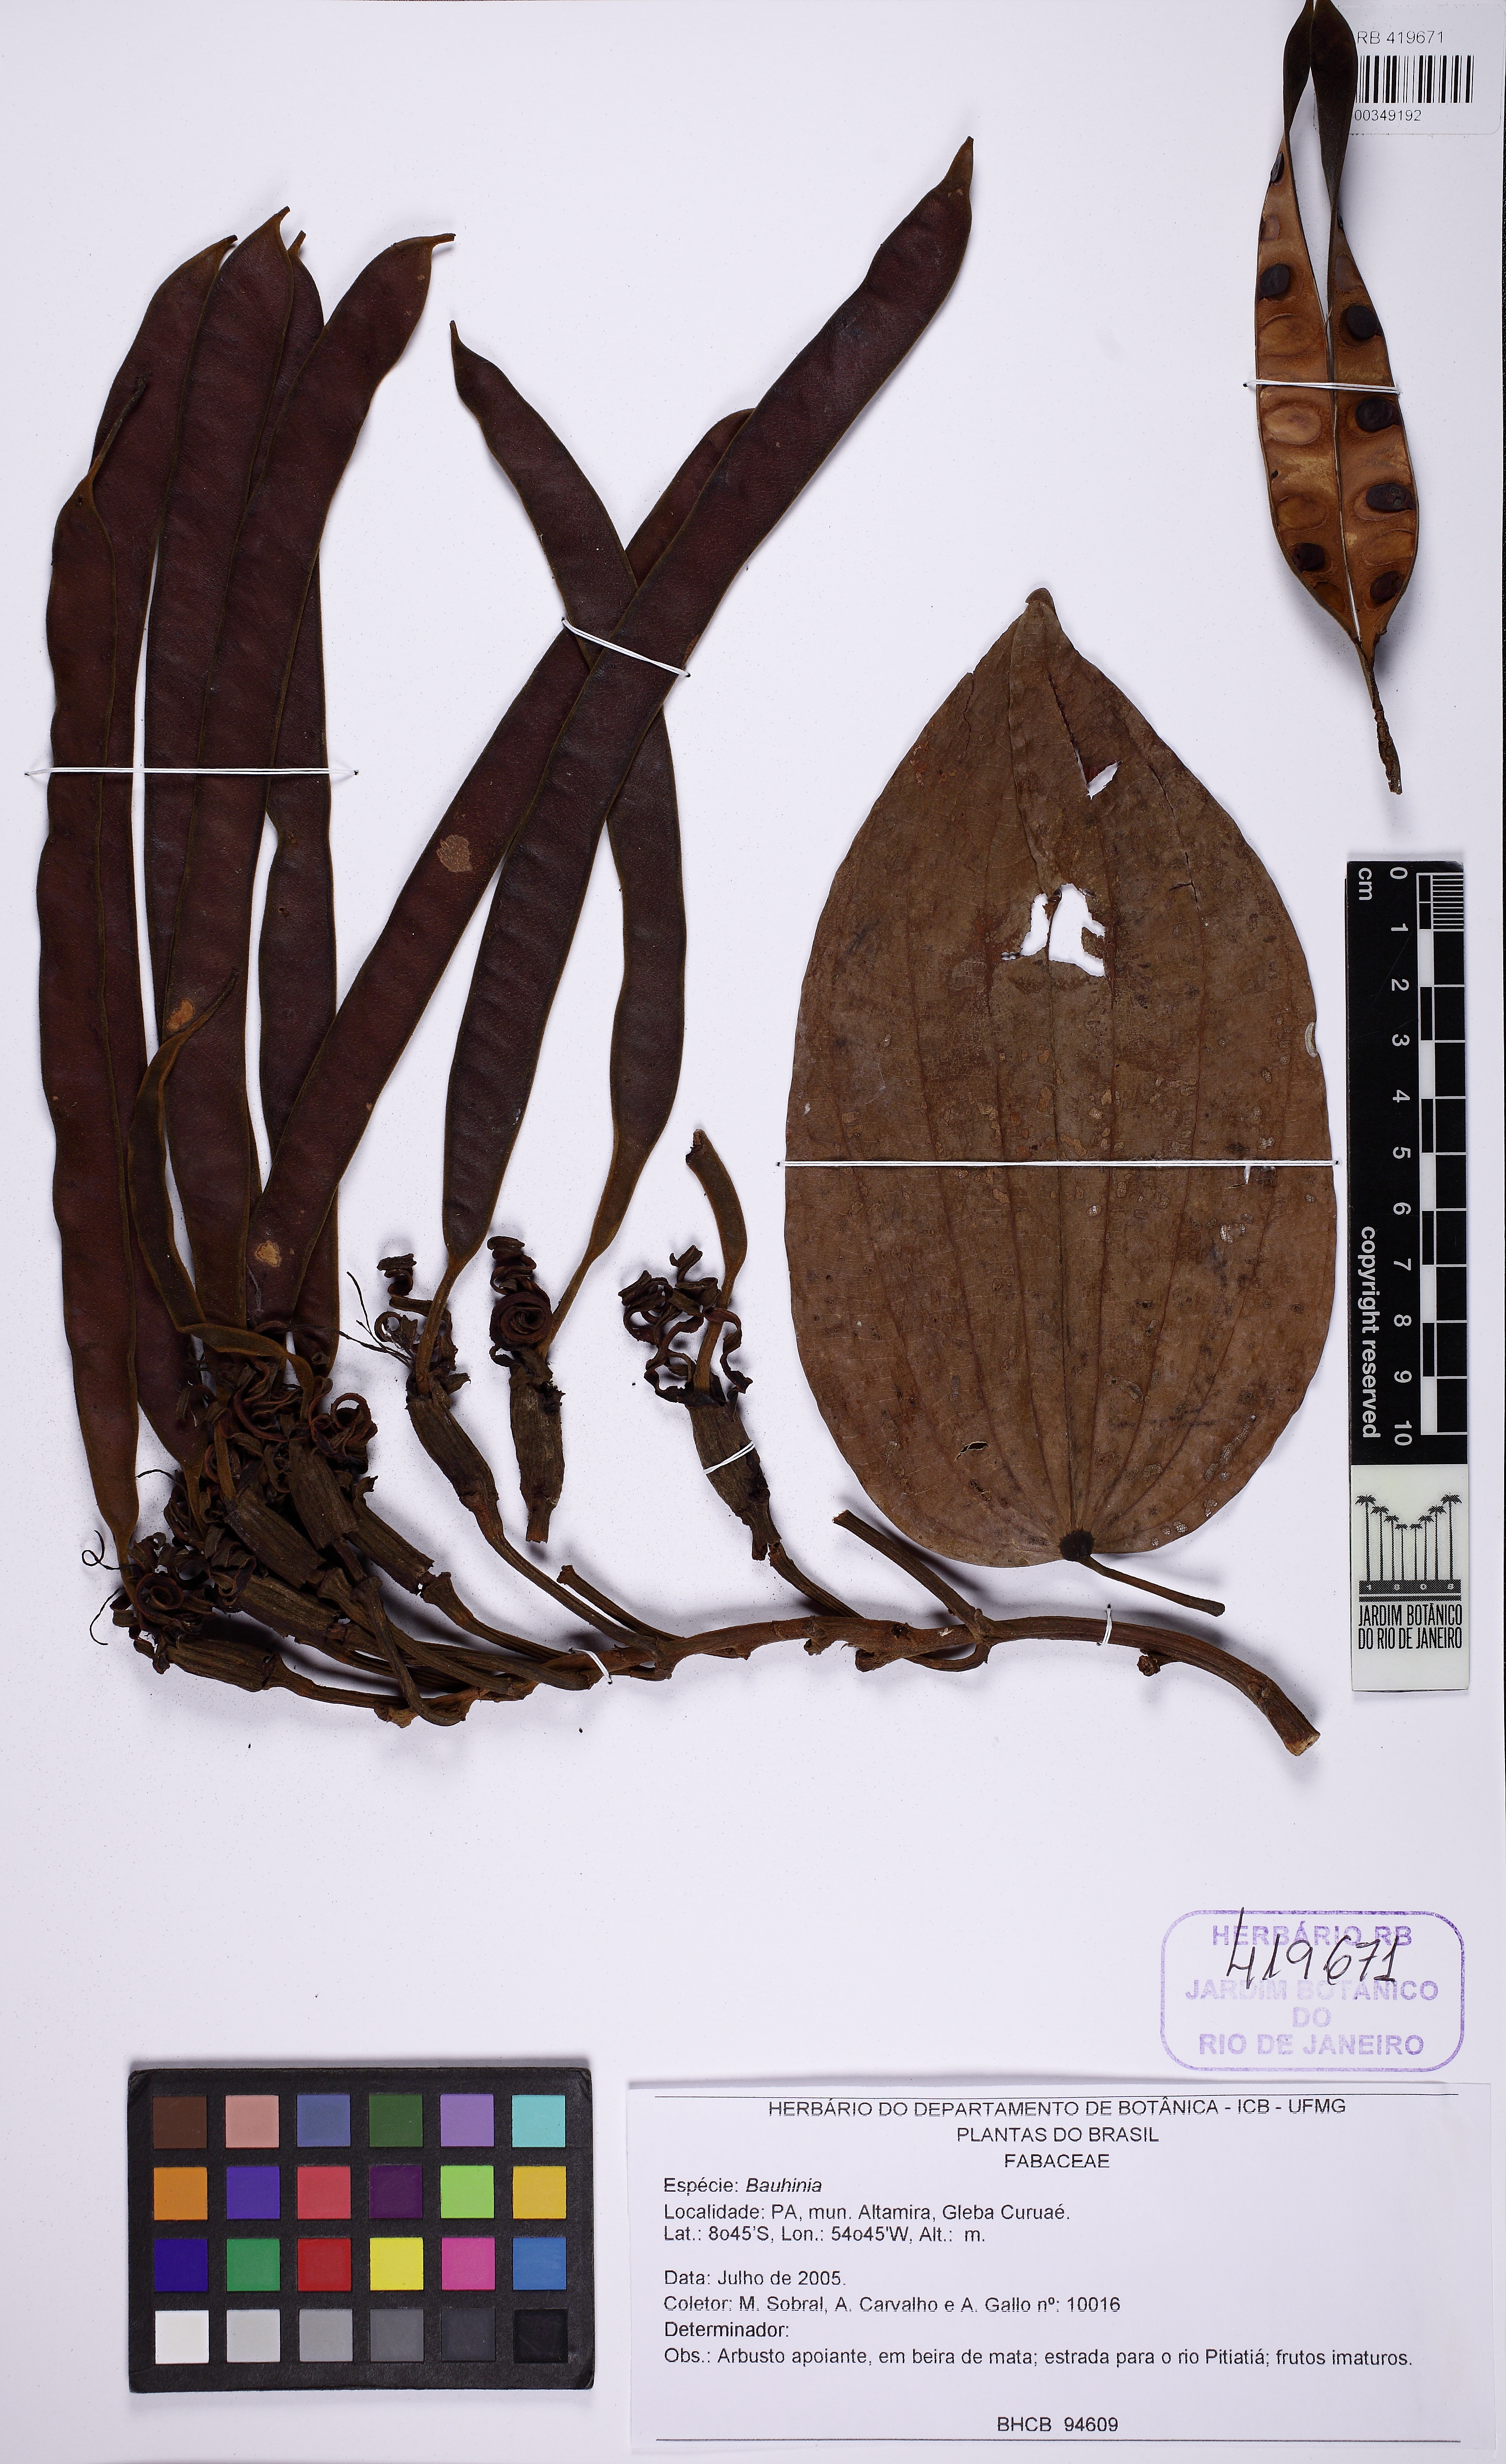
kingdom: Plantae
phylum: Tracheophyta
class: Magnoliopsida
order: Fabales
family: Fabaceae
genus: Bauhinia
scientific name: Bauhinia
